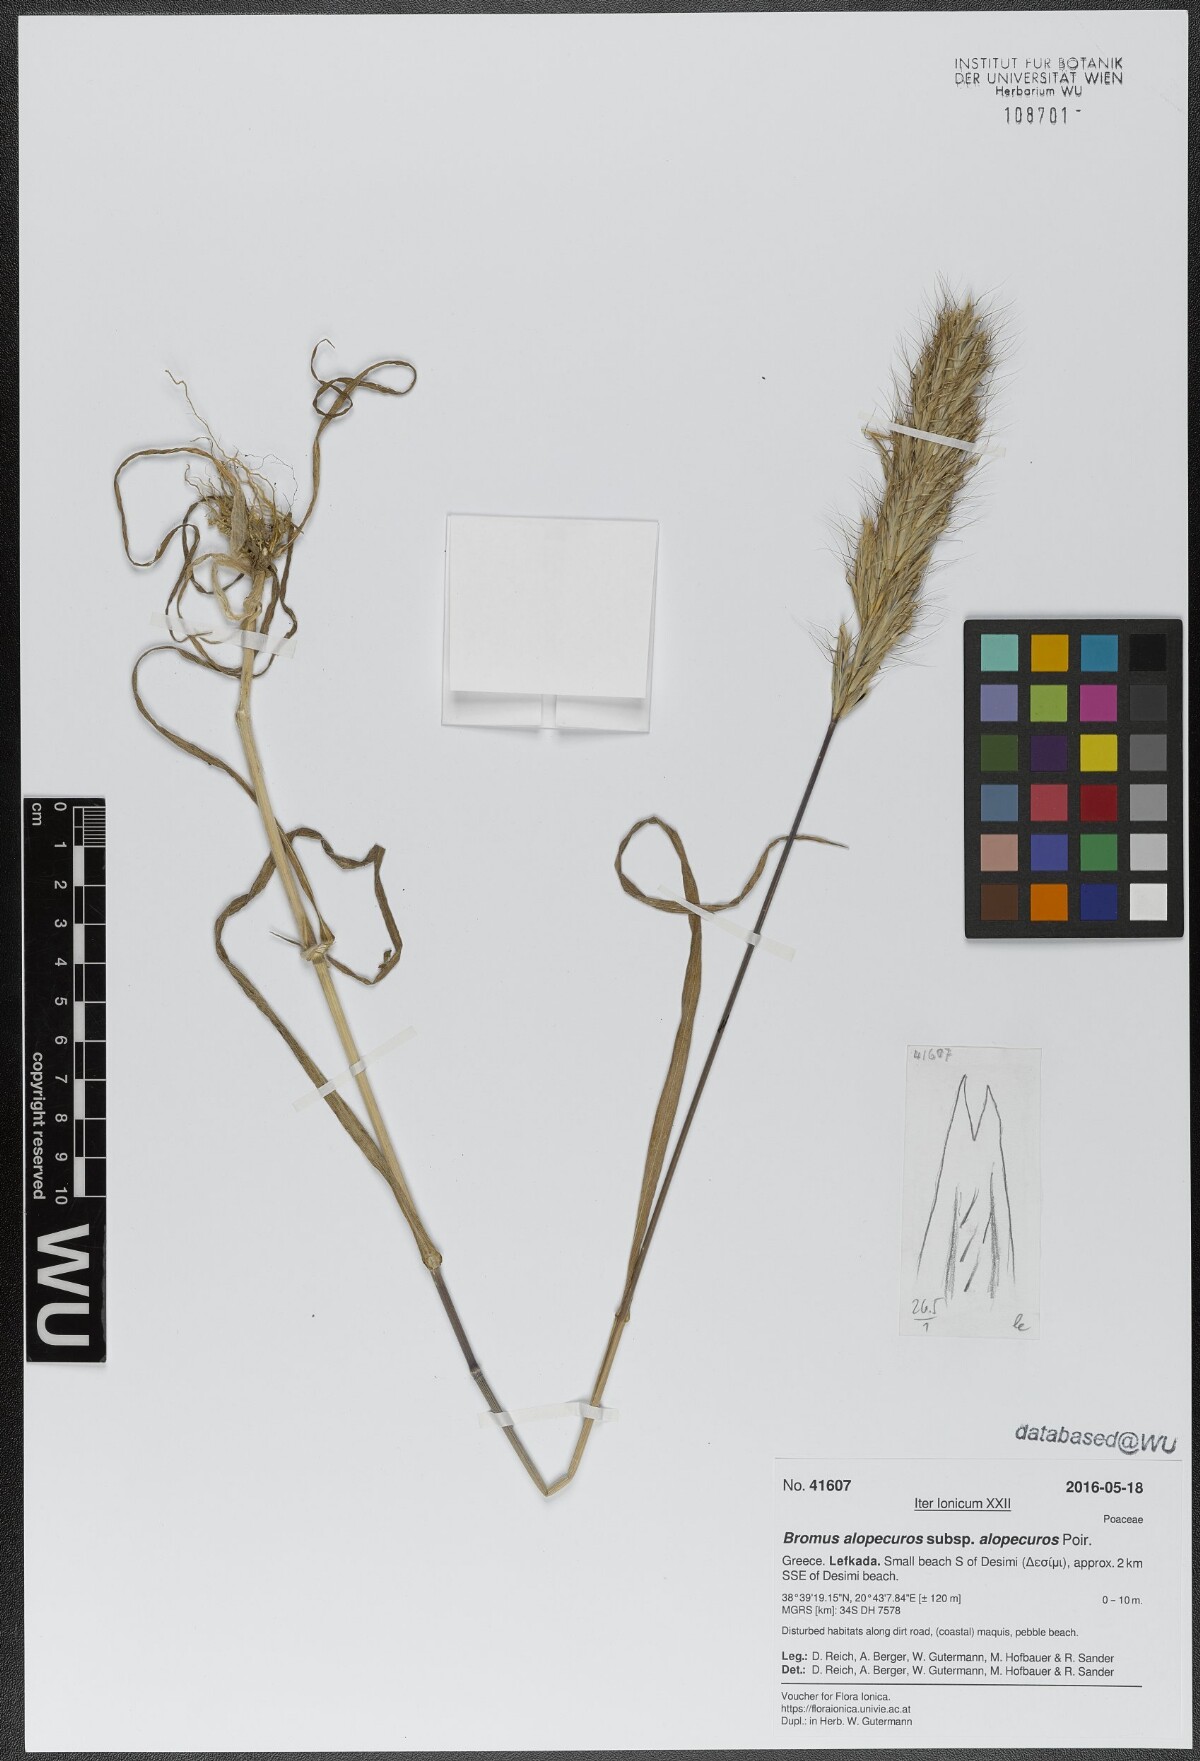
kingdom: Plantae
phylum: Tracheophyta
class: Liliopsida
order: Poales
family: Poaceae
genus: Bromus
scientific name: Bromus alopecuros
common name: Weedy brome
